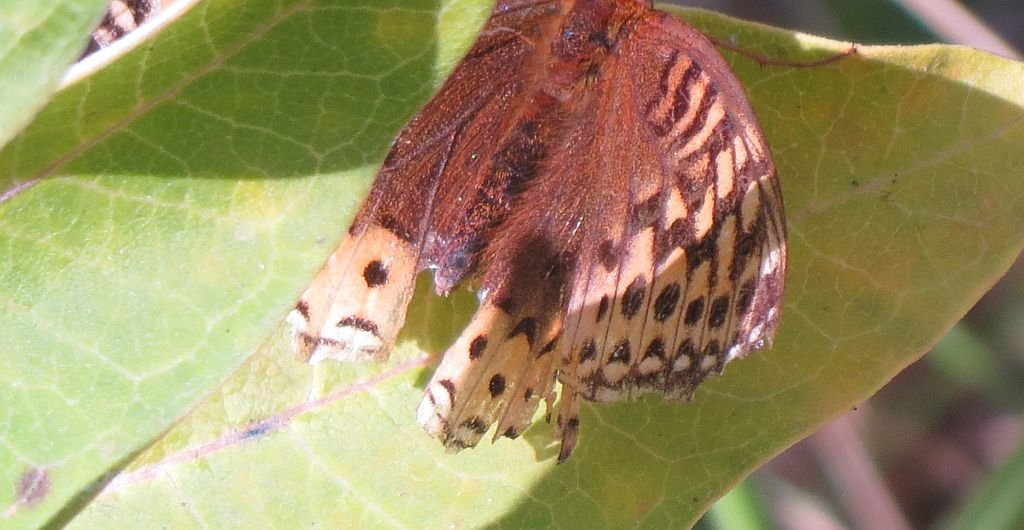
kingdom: Animalia
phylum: Arthropoda
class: Insecta
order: Lepidoptera
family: Nymphalidae
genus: Speyeria
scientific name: Speyeria cybele
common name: Great Spangled Fritillary
